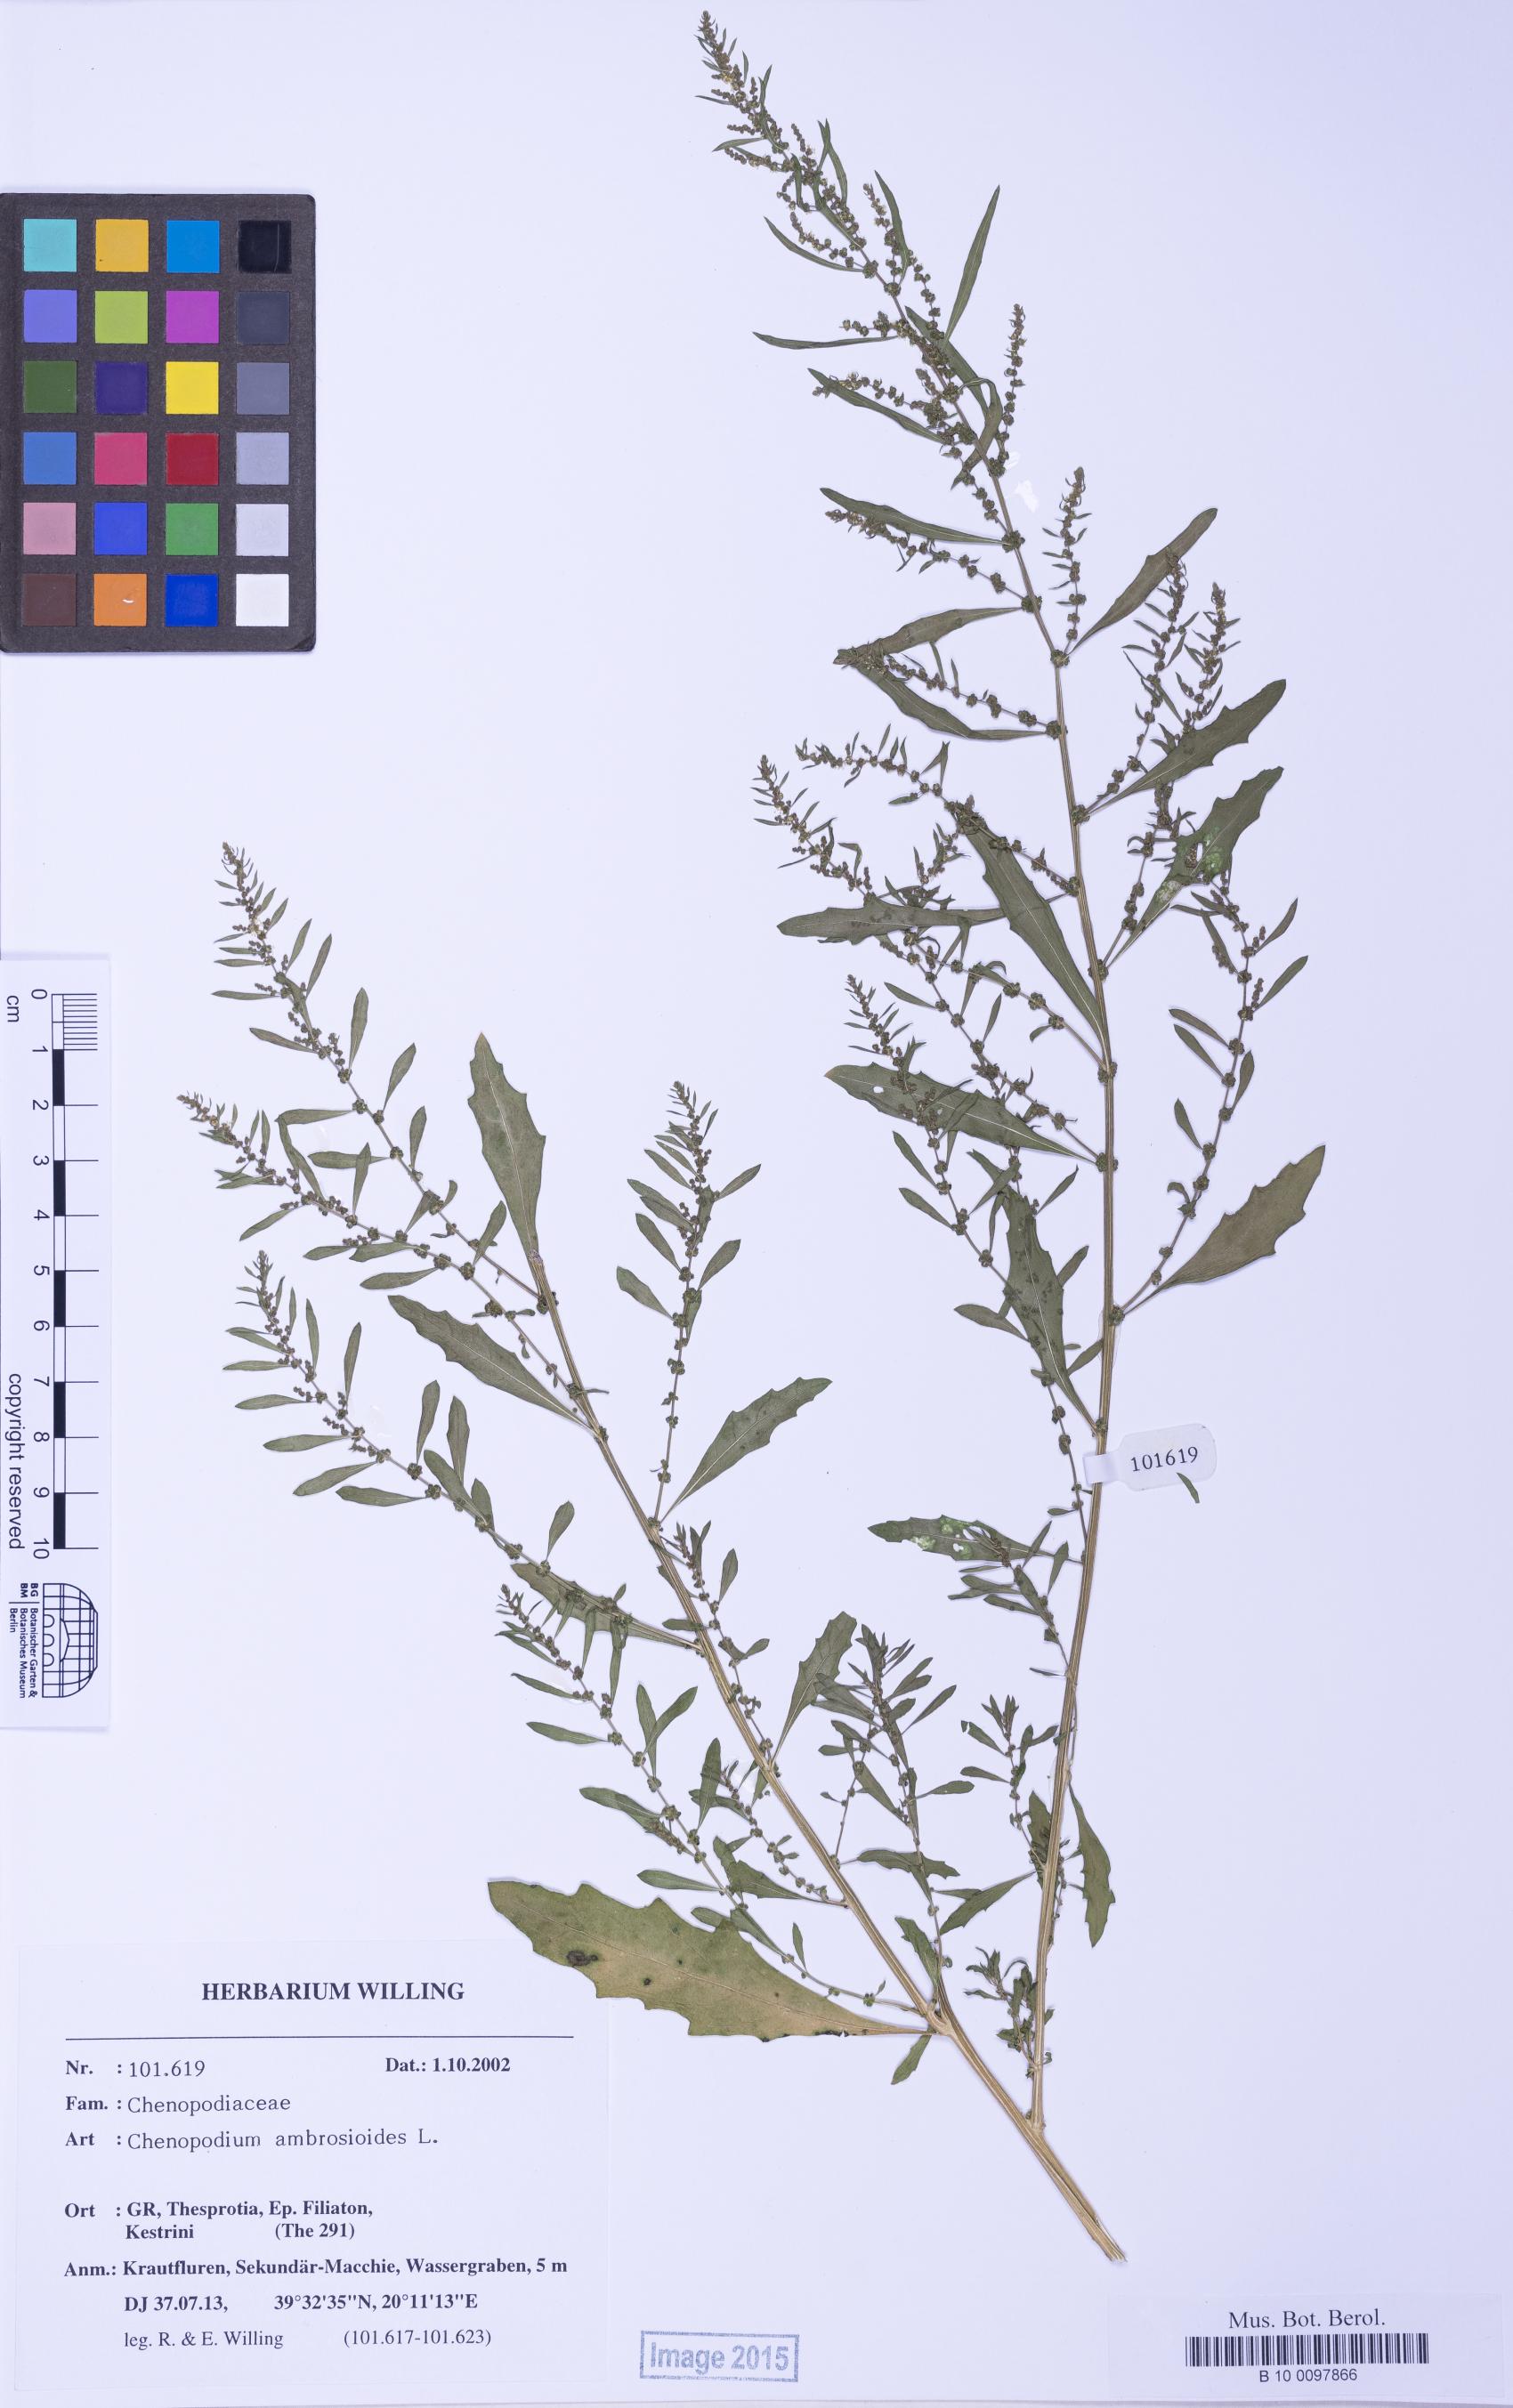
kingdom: Plantae
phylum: Tracheophyta
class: Magnoliopsida
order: Caryophyllales
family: Amaranthaceae
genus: Dysphania
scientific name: Dysphania ambrosioides
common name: Wormseed
